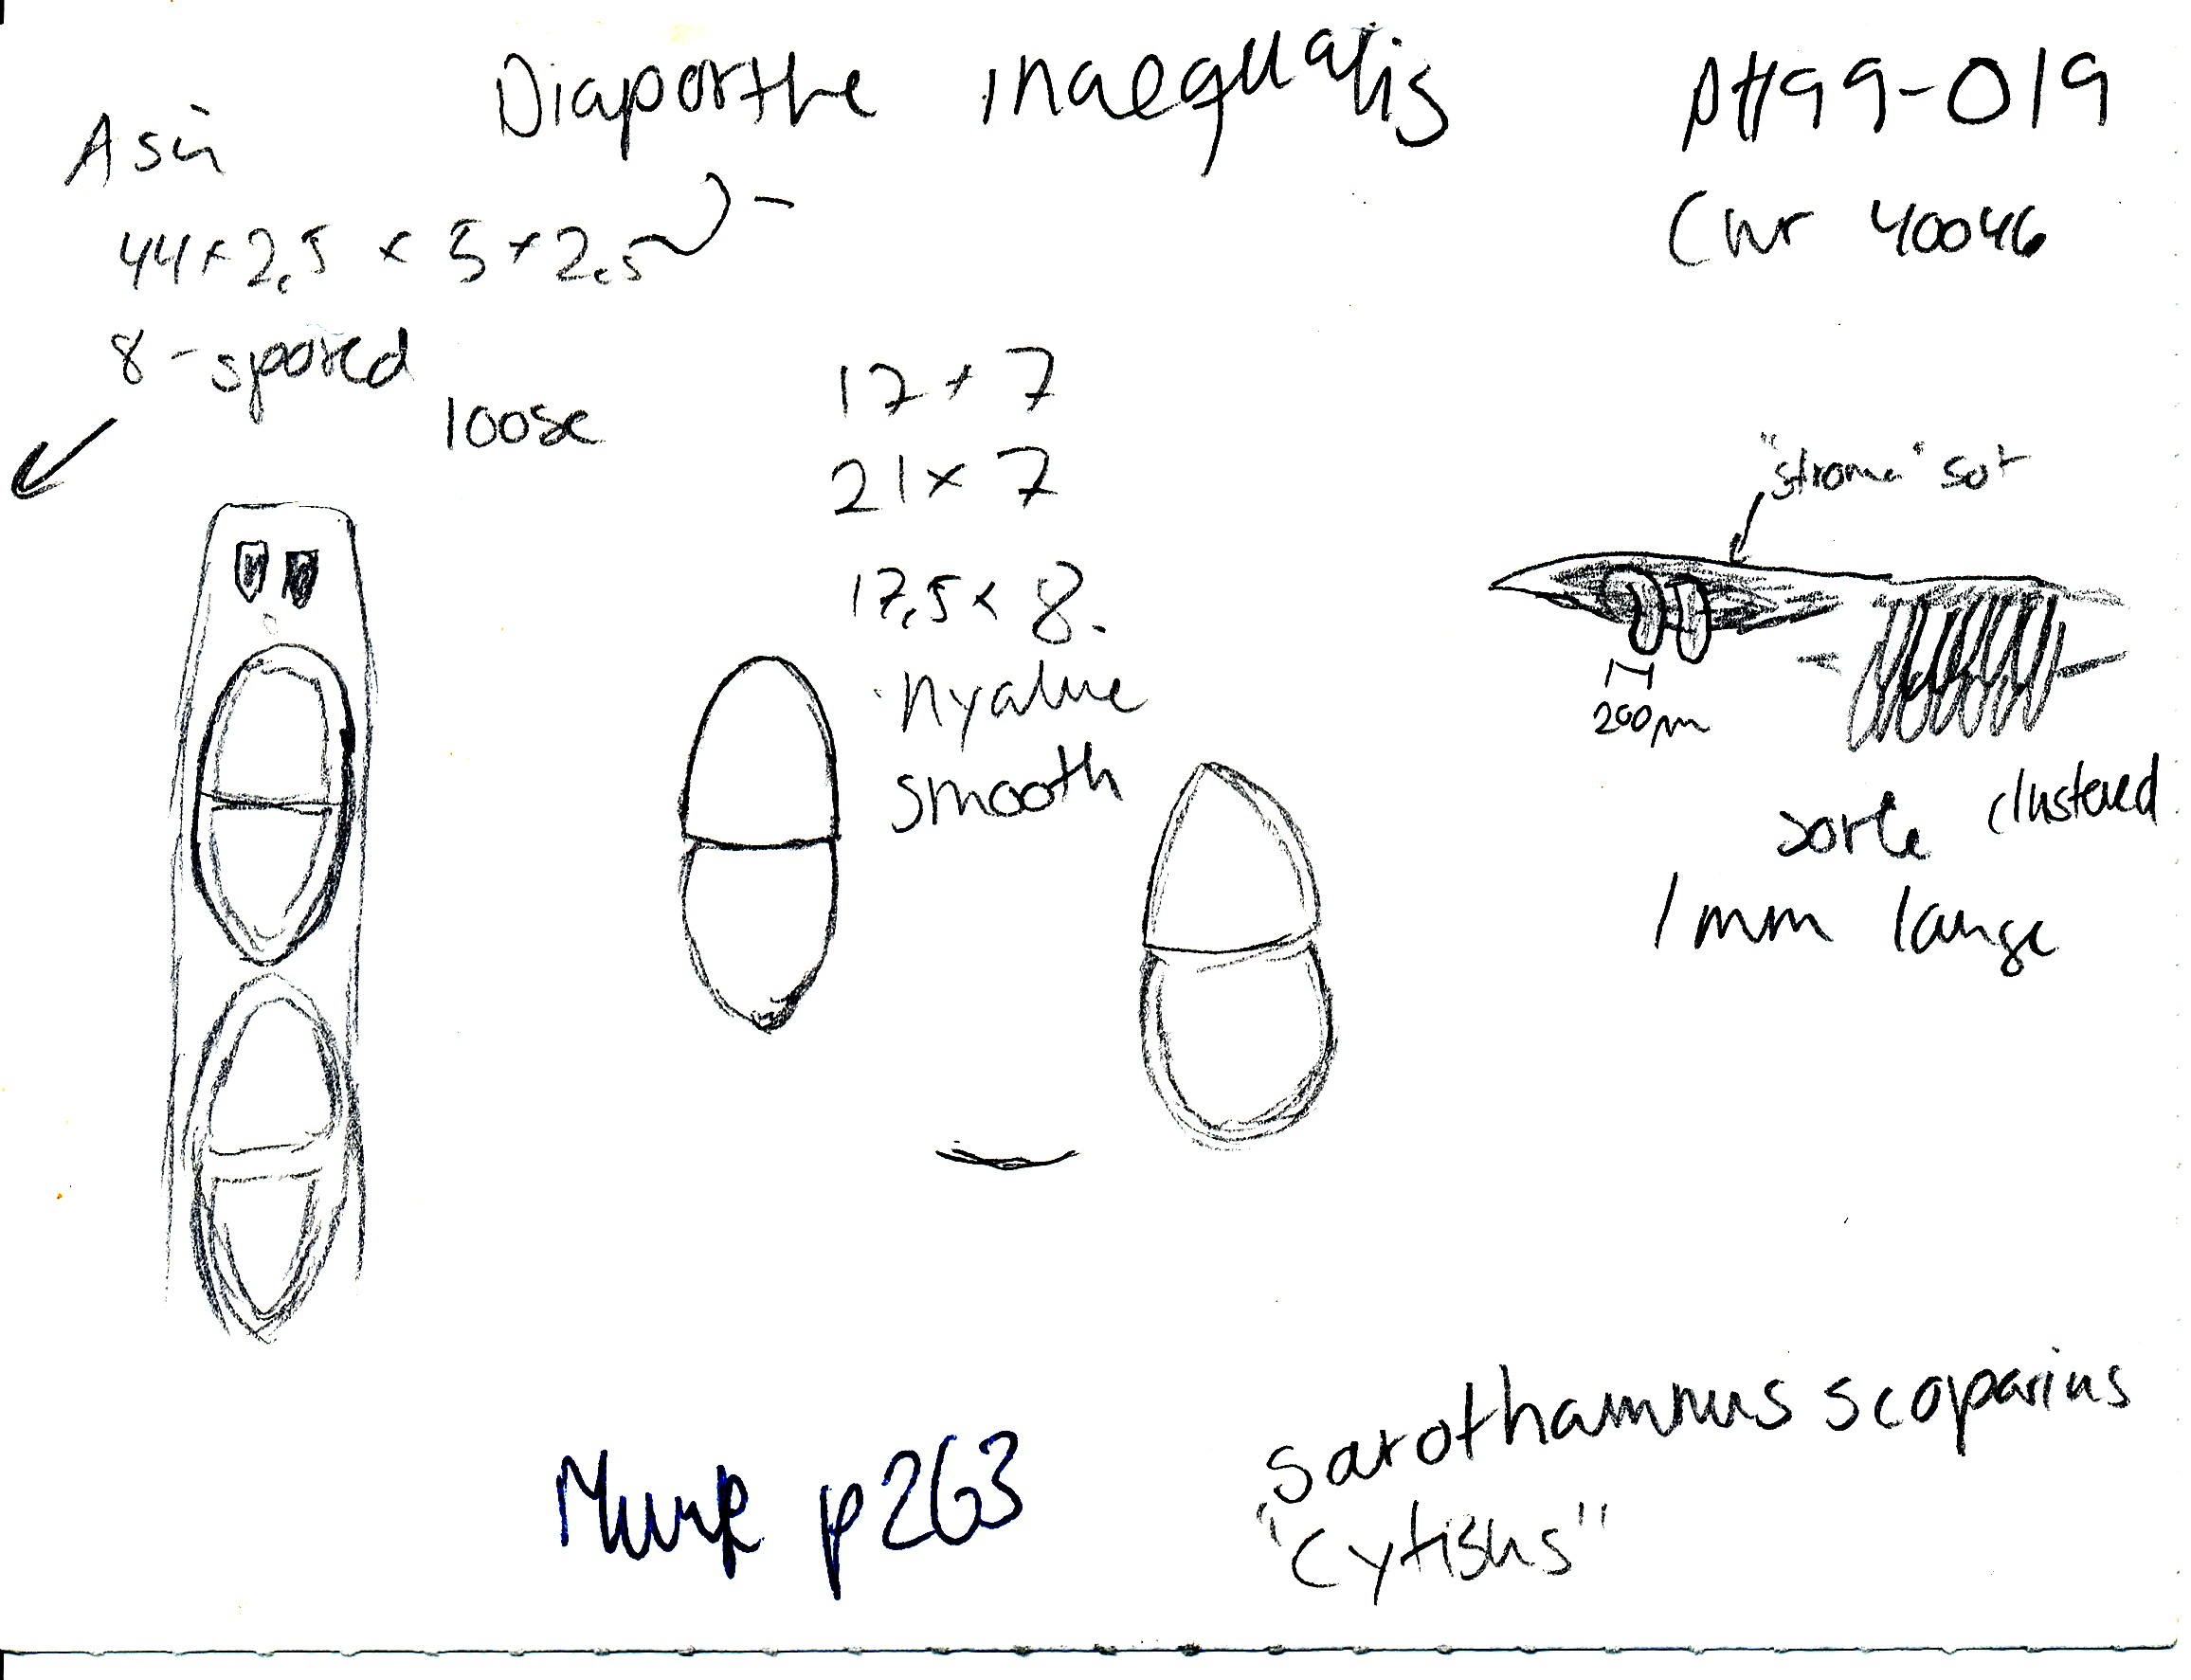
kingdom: Fungi
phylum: Ascomycota
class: Sordariomycetes
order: Diaporthales
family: Diaporthaceae
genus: Diaporthe
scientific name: Diaporthe inaequalis
